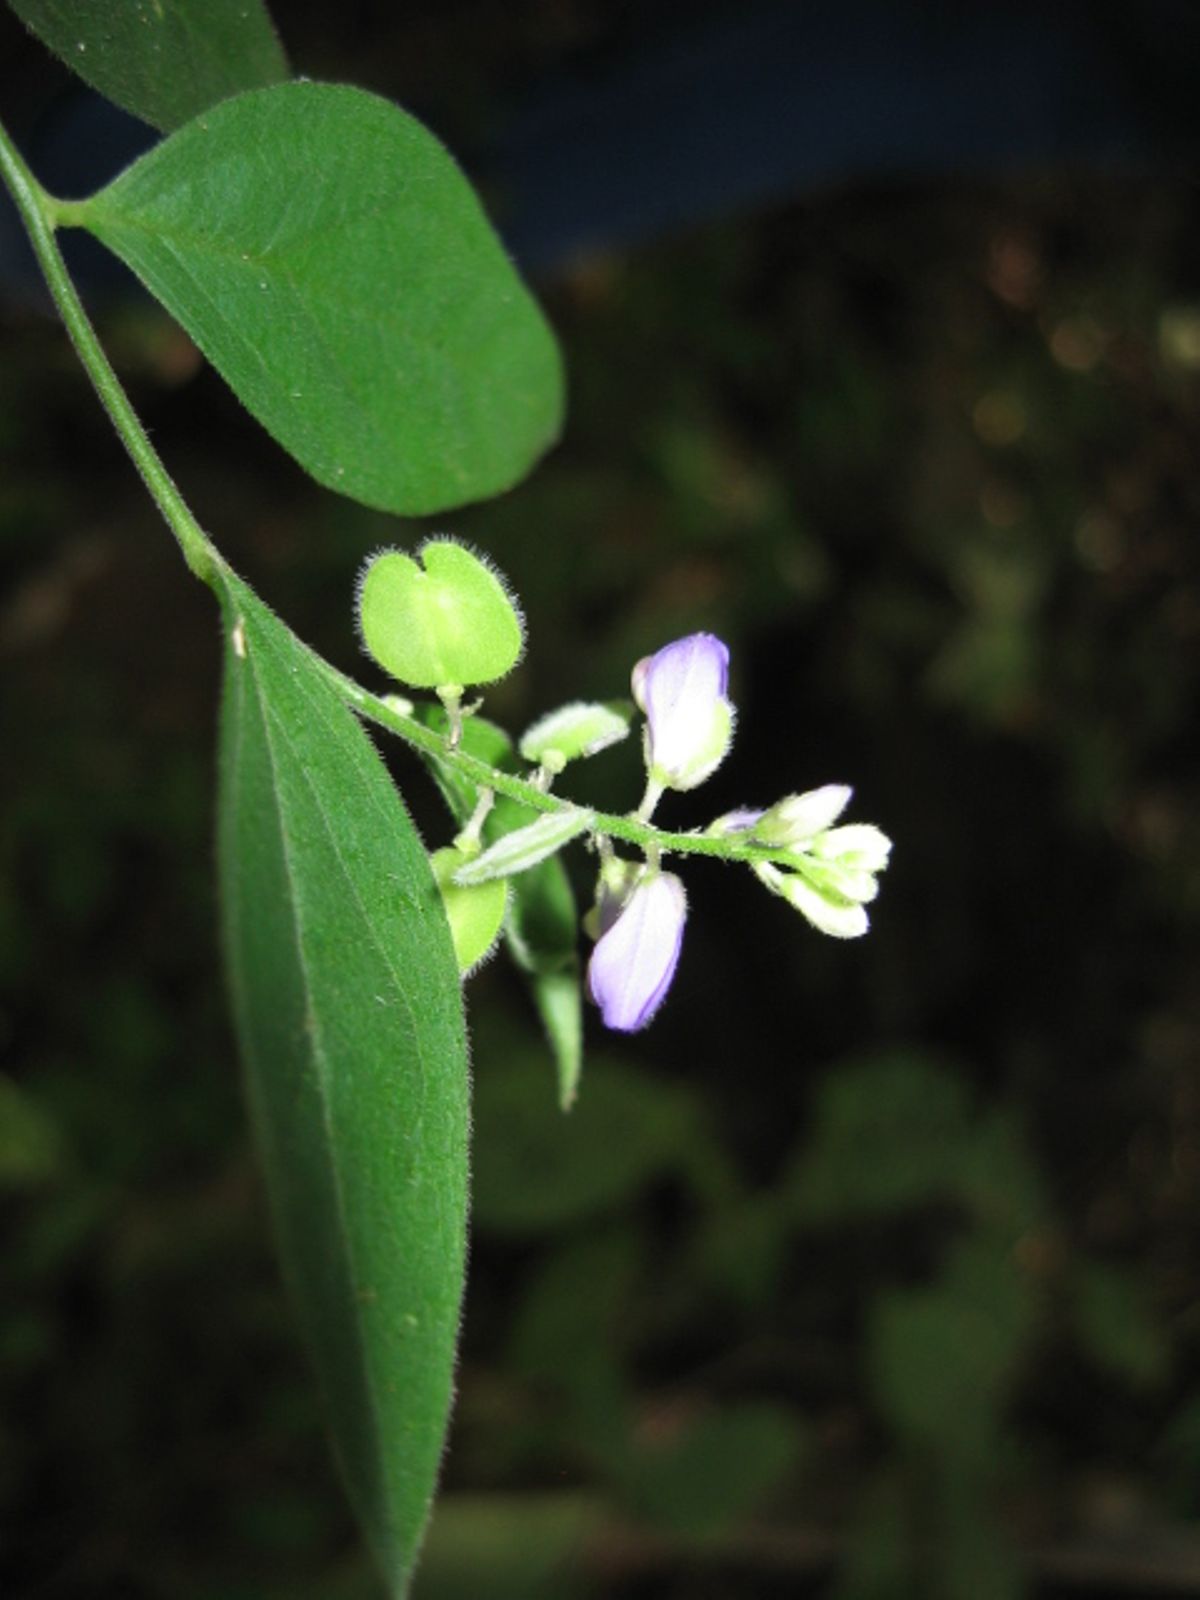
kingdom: Plantae
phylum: Tracheophyta
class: Magnoliopsida
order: Fabales
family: Polygalaceae
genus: Polygala
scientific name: Polygala
